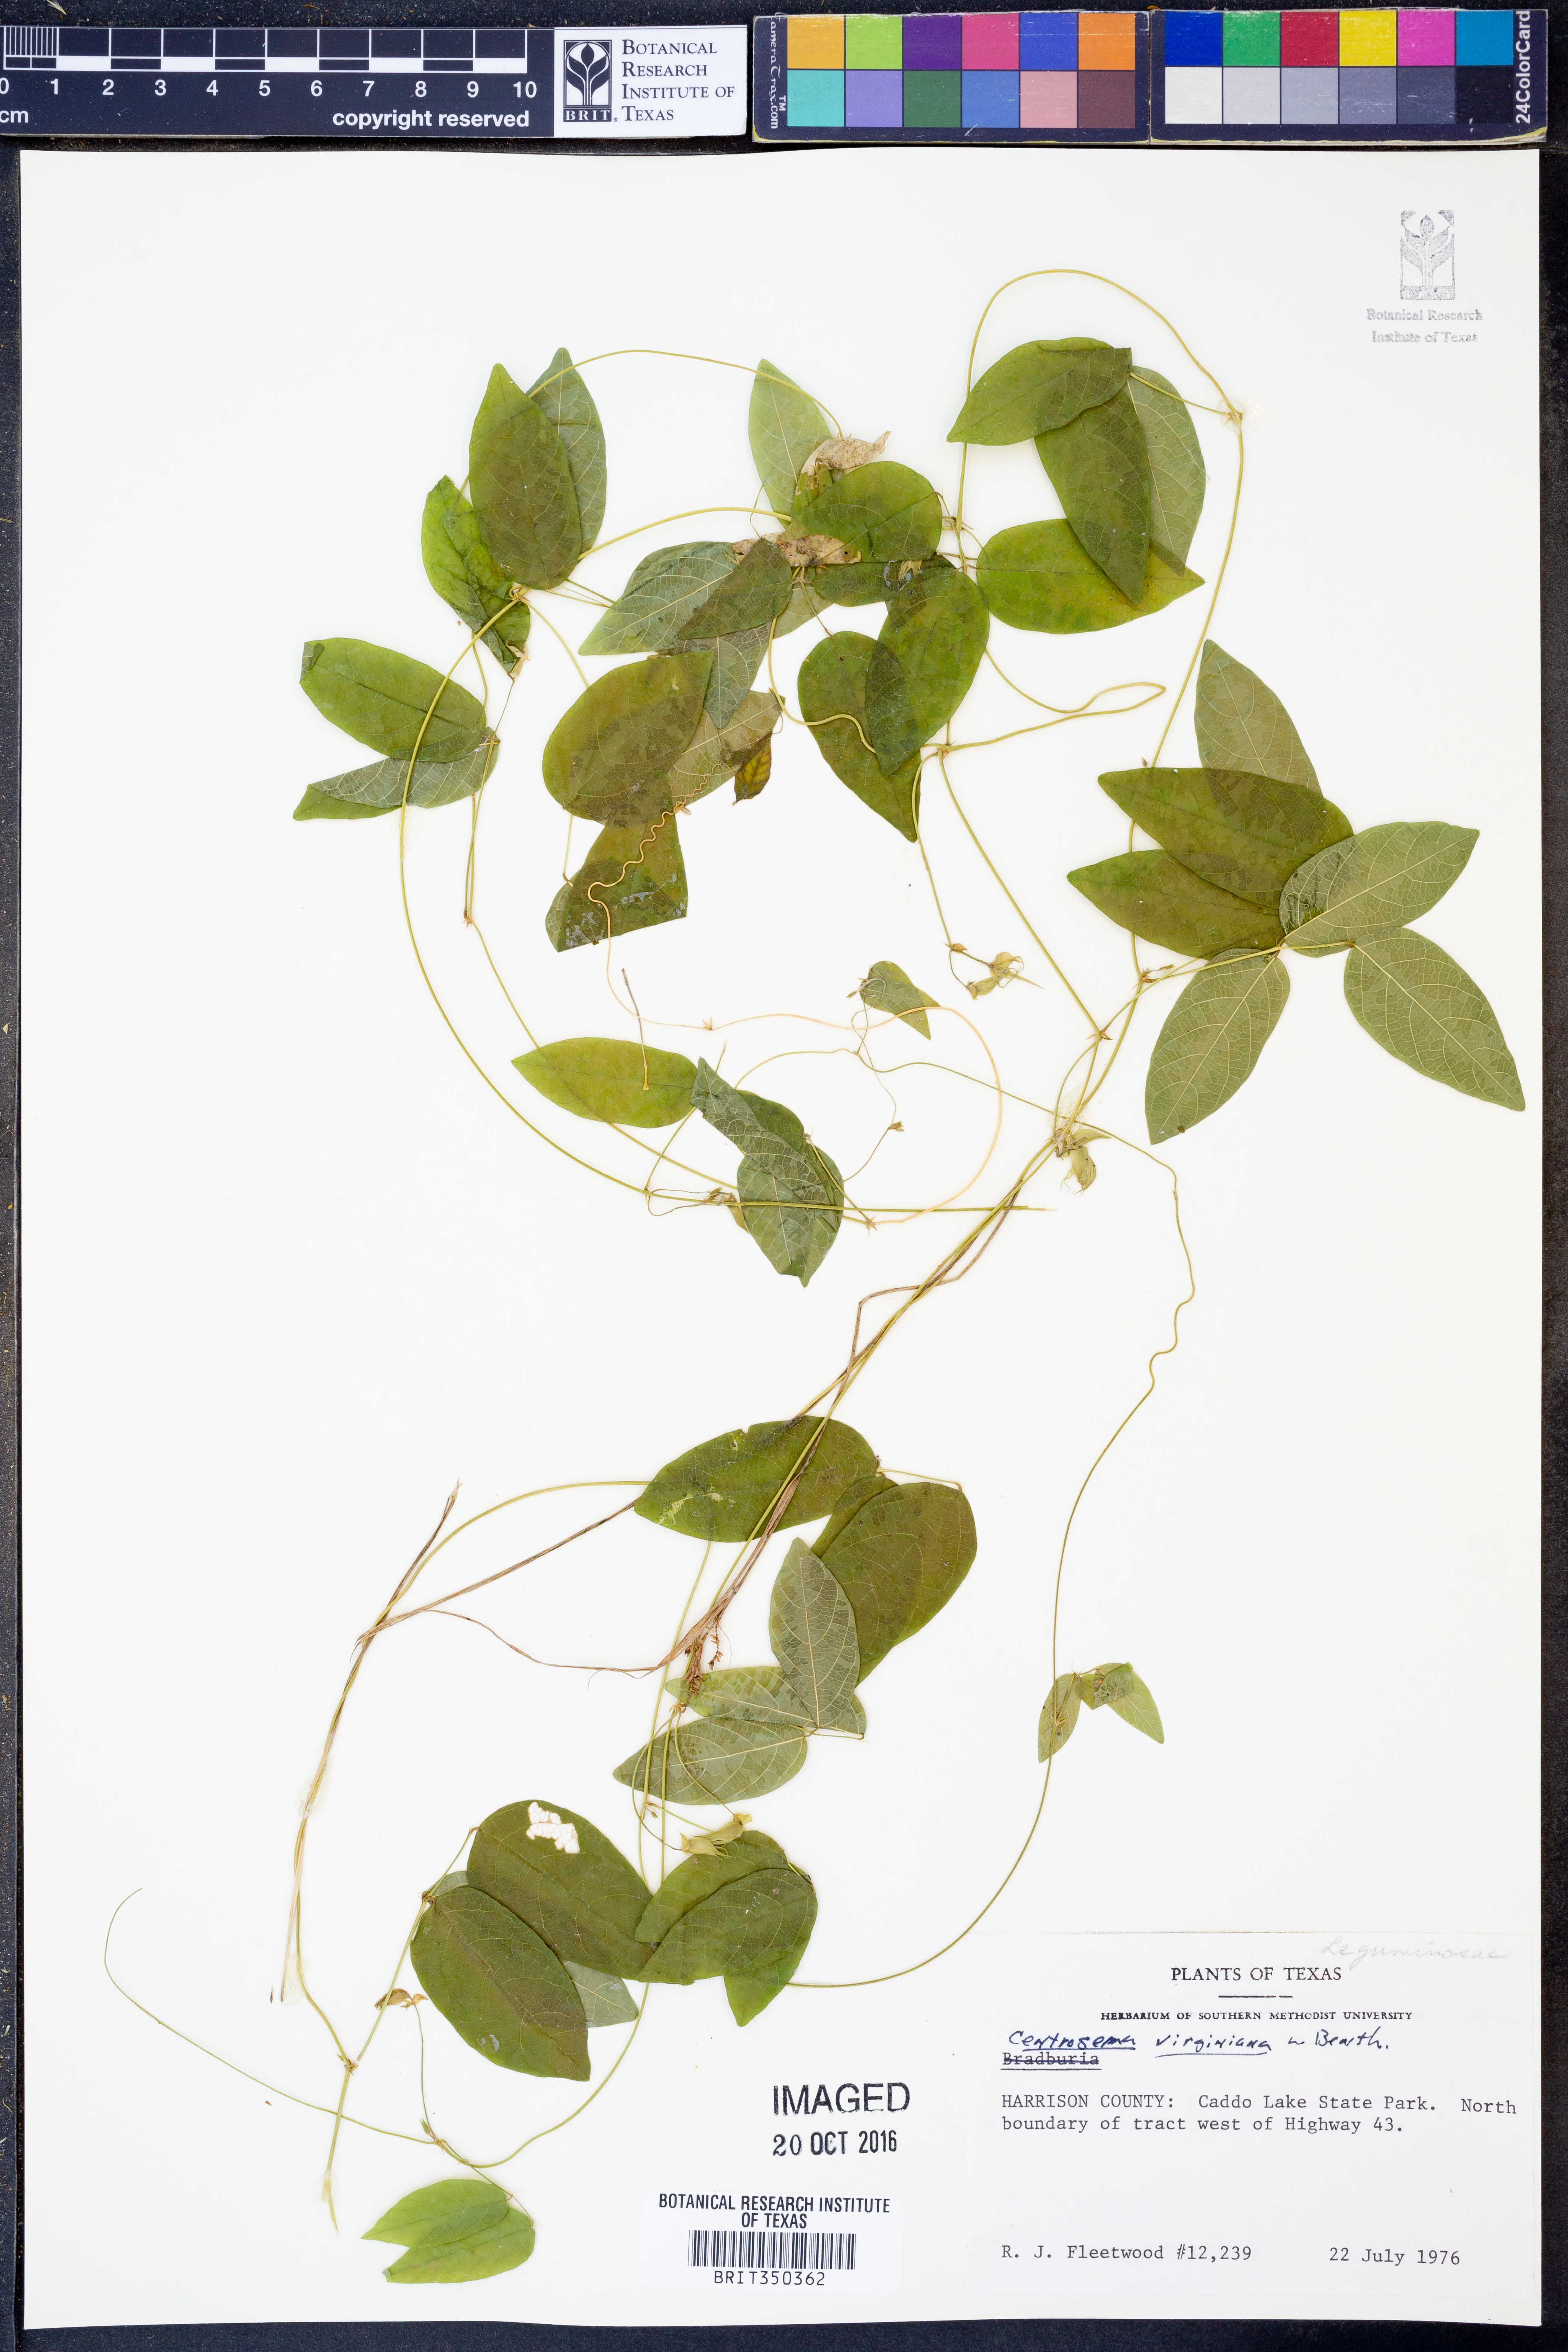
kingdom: Plantae
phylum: Tracheophyta
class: Magnoliopsida
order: Fabales
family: Fabaceae
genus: Centrosema
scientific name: Centrosema virginianum
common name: Butterfly-pea
